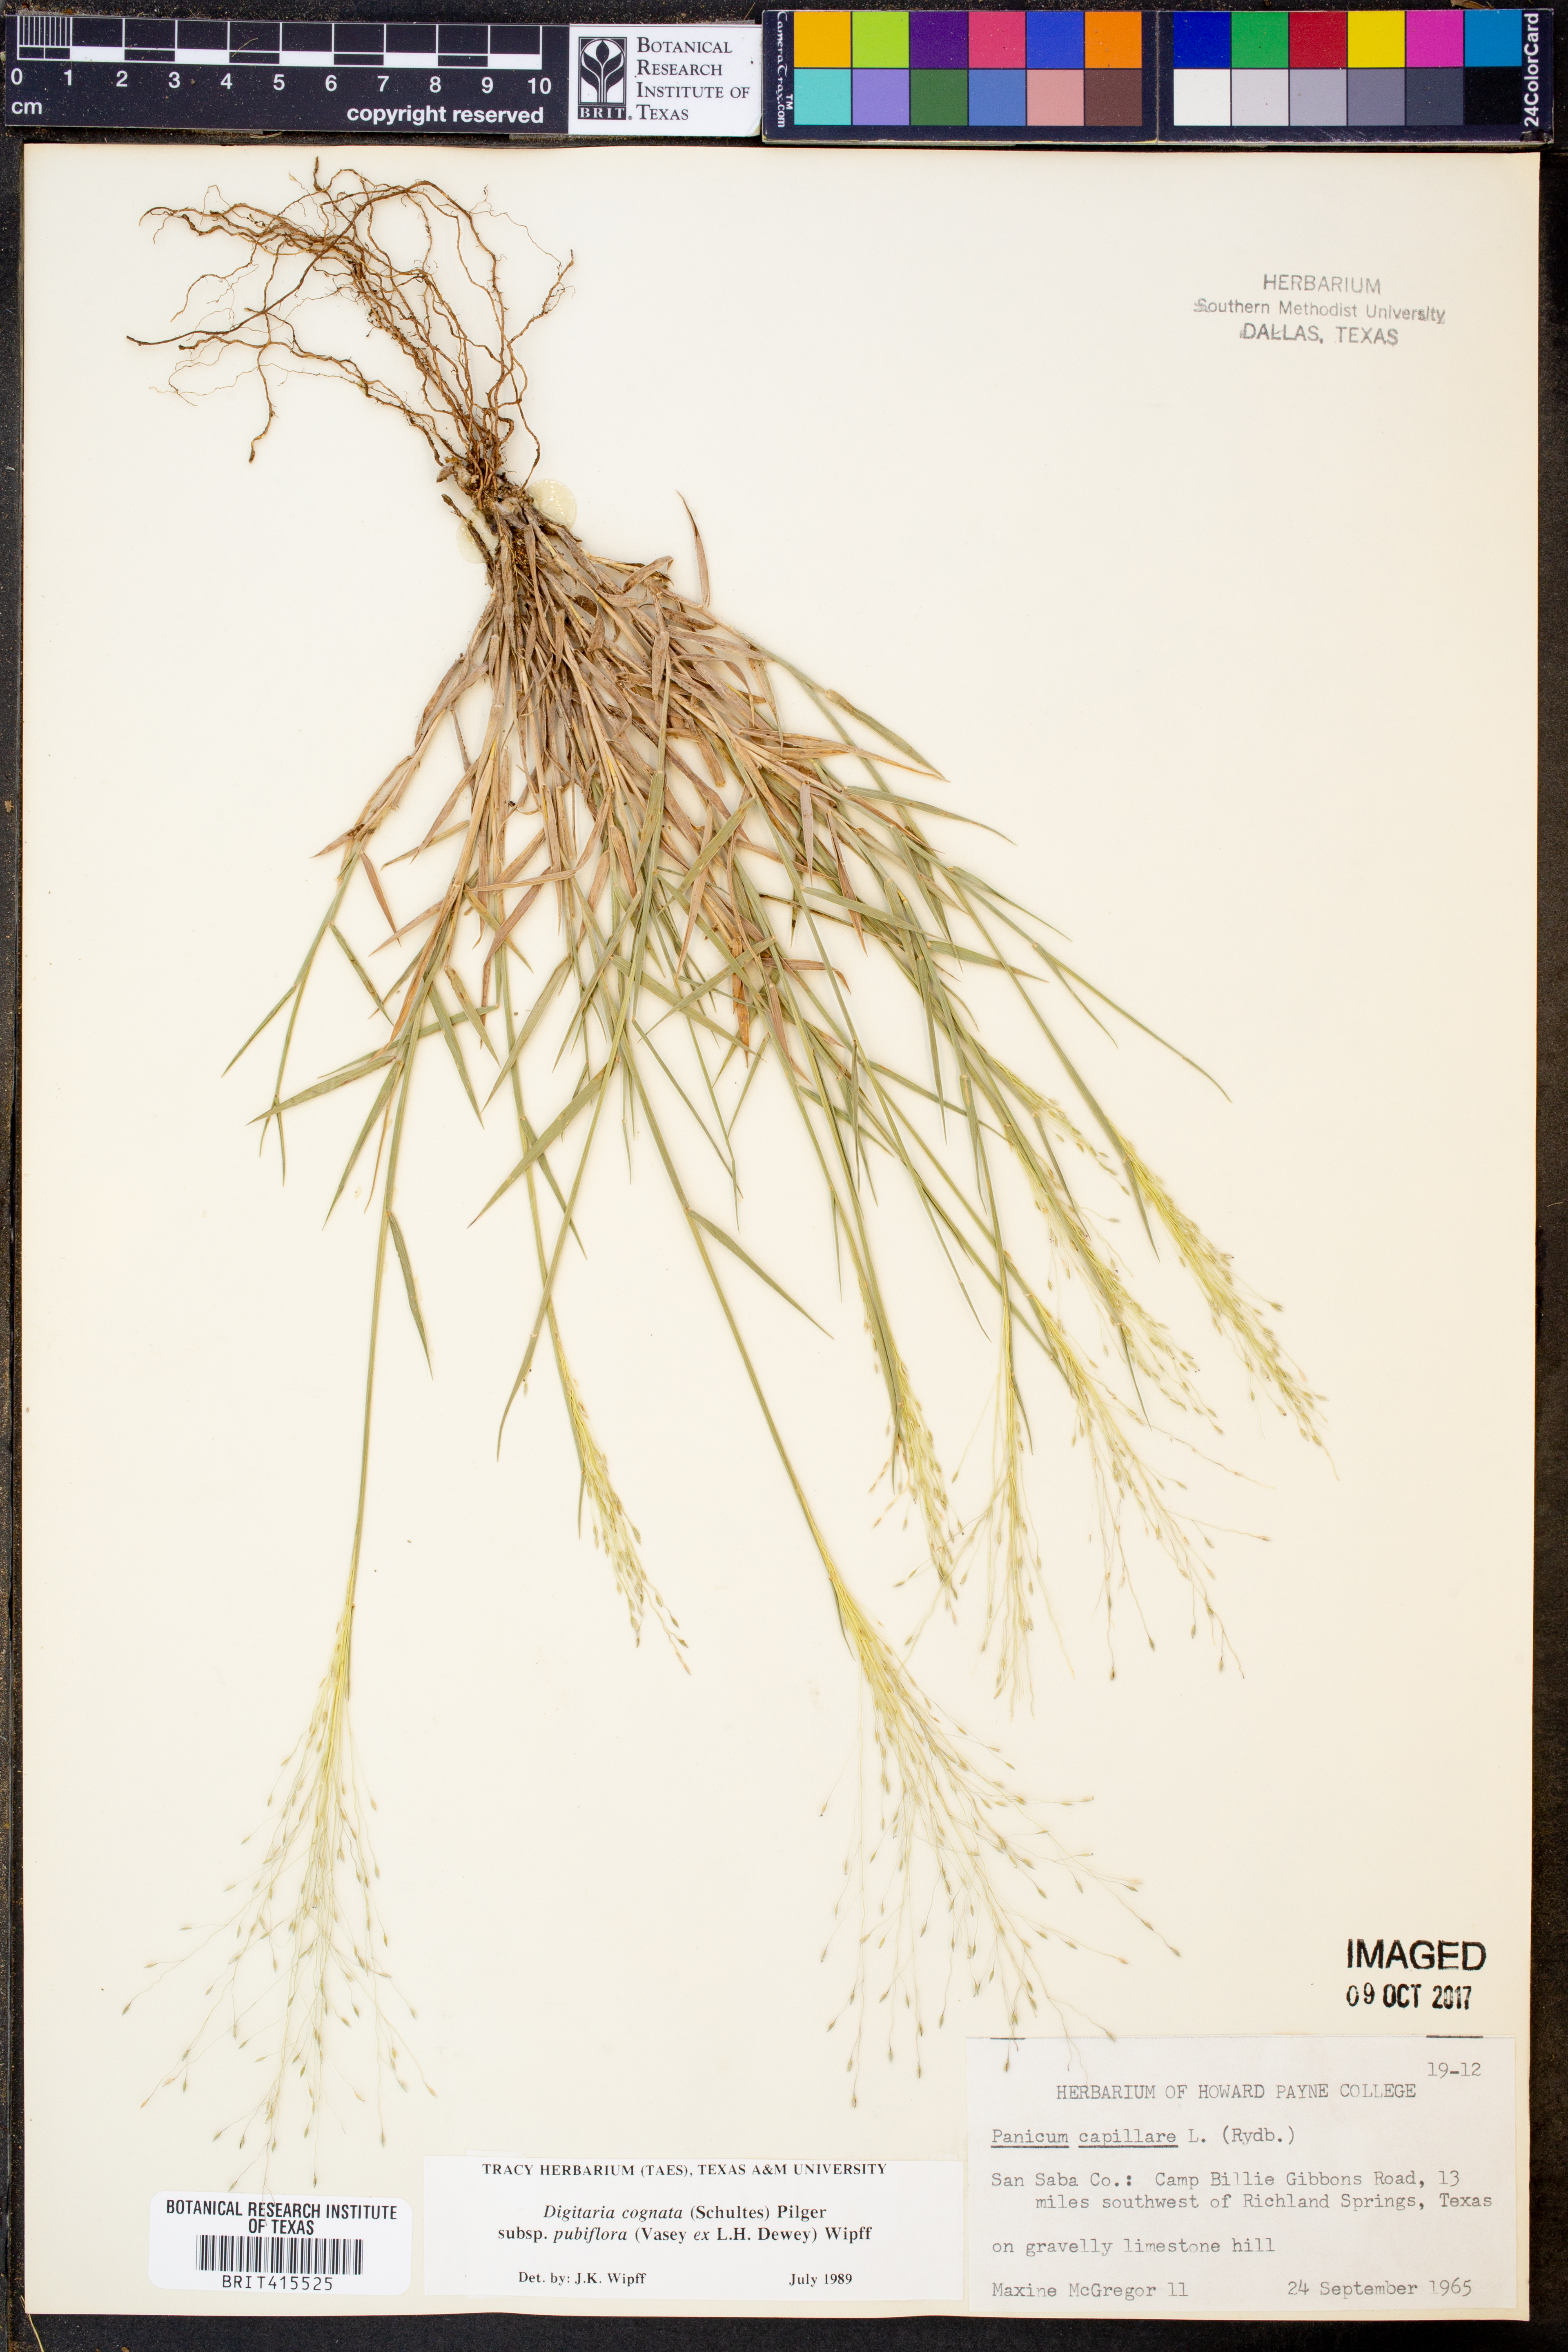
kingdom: Plantae
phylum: Tracheophyta
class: Liliopsida
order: Poales
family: Poaceae
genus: Digitaria
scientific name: Digitaria cognata
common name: Fall witchgrass
